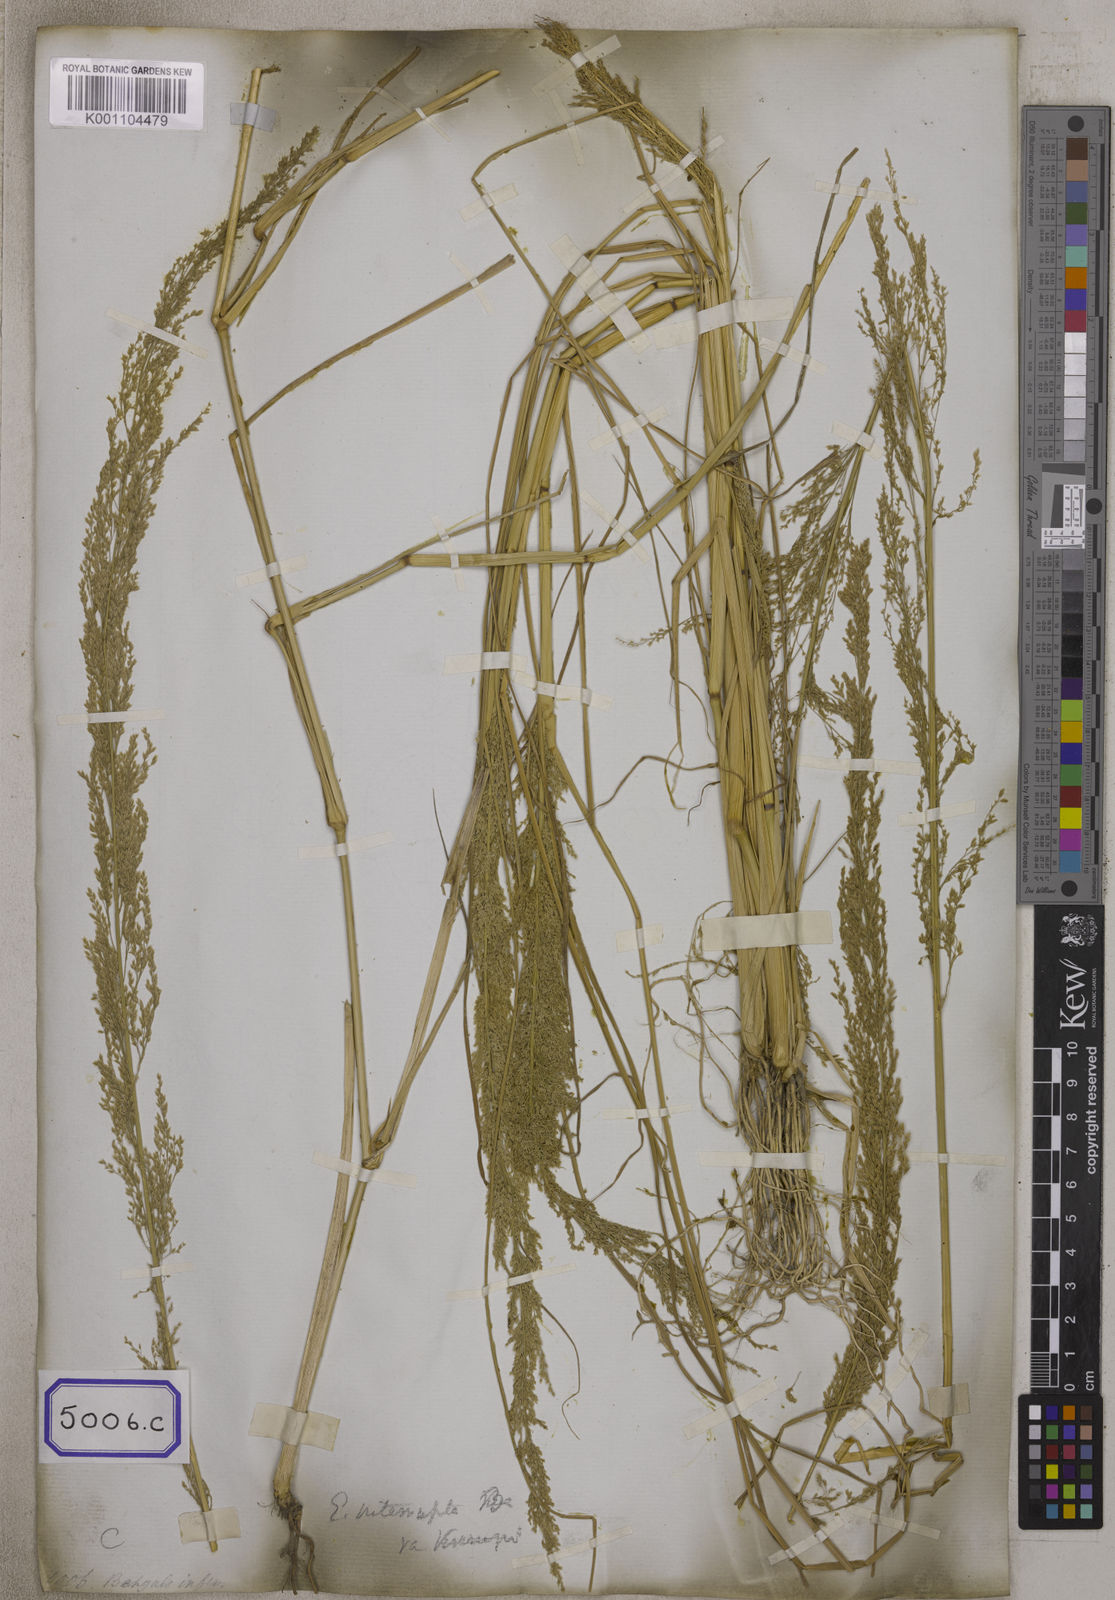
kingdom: Plantae
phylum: Tracheophyta
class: Liliopsida
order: Poales
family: Poaceae
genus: Eragrostis
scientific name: Eragrostis
